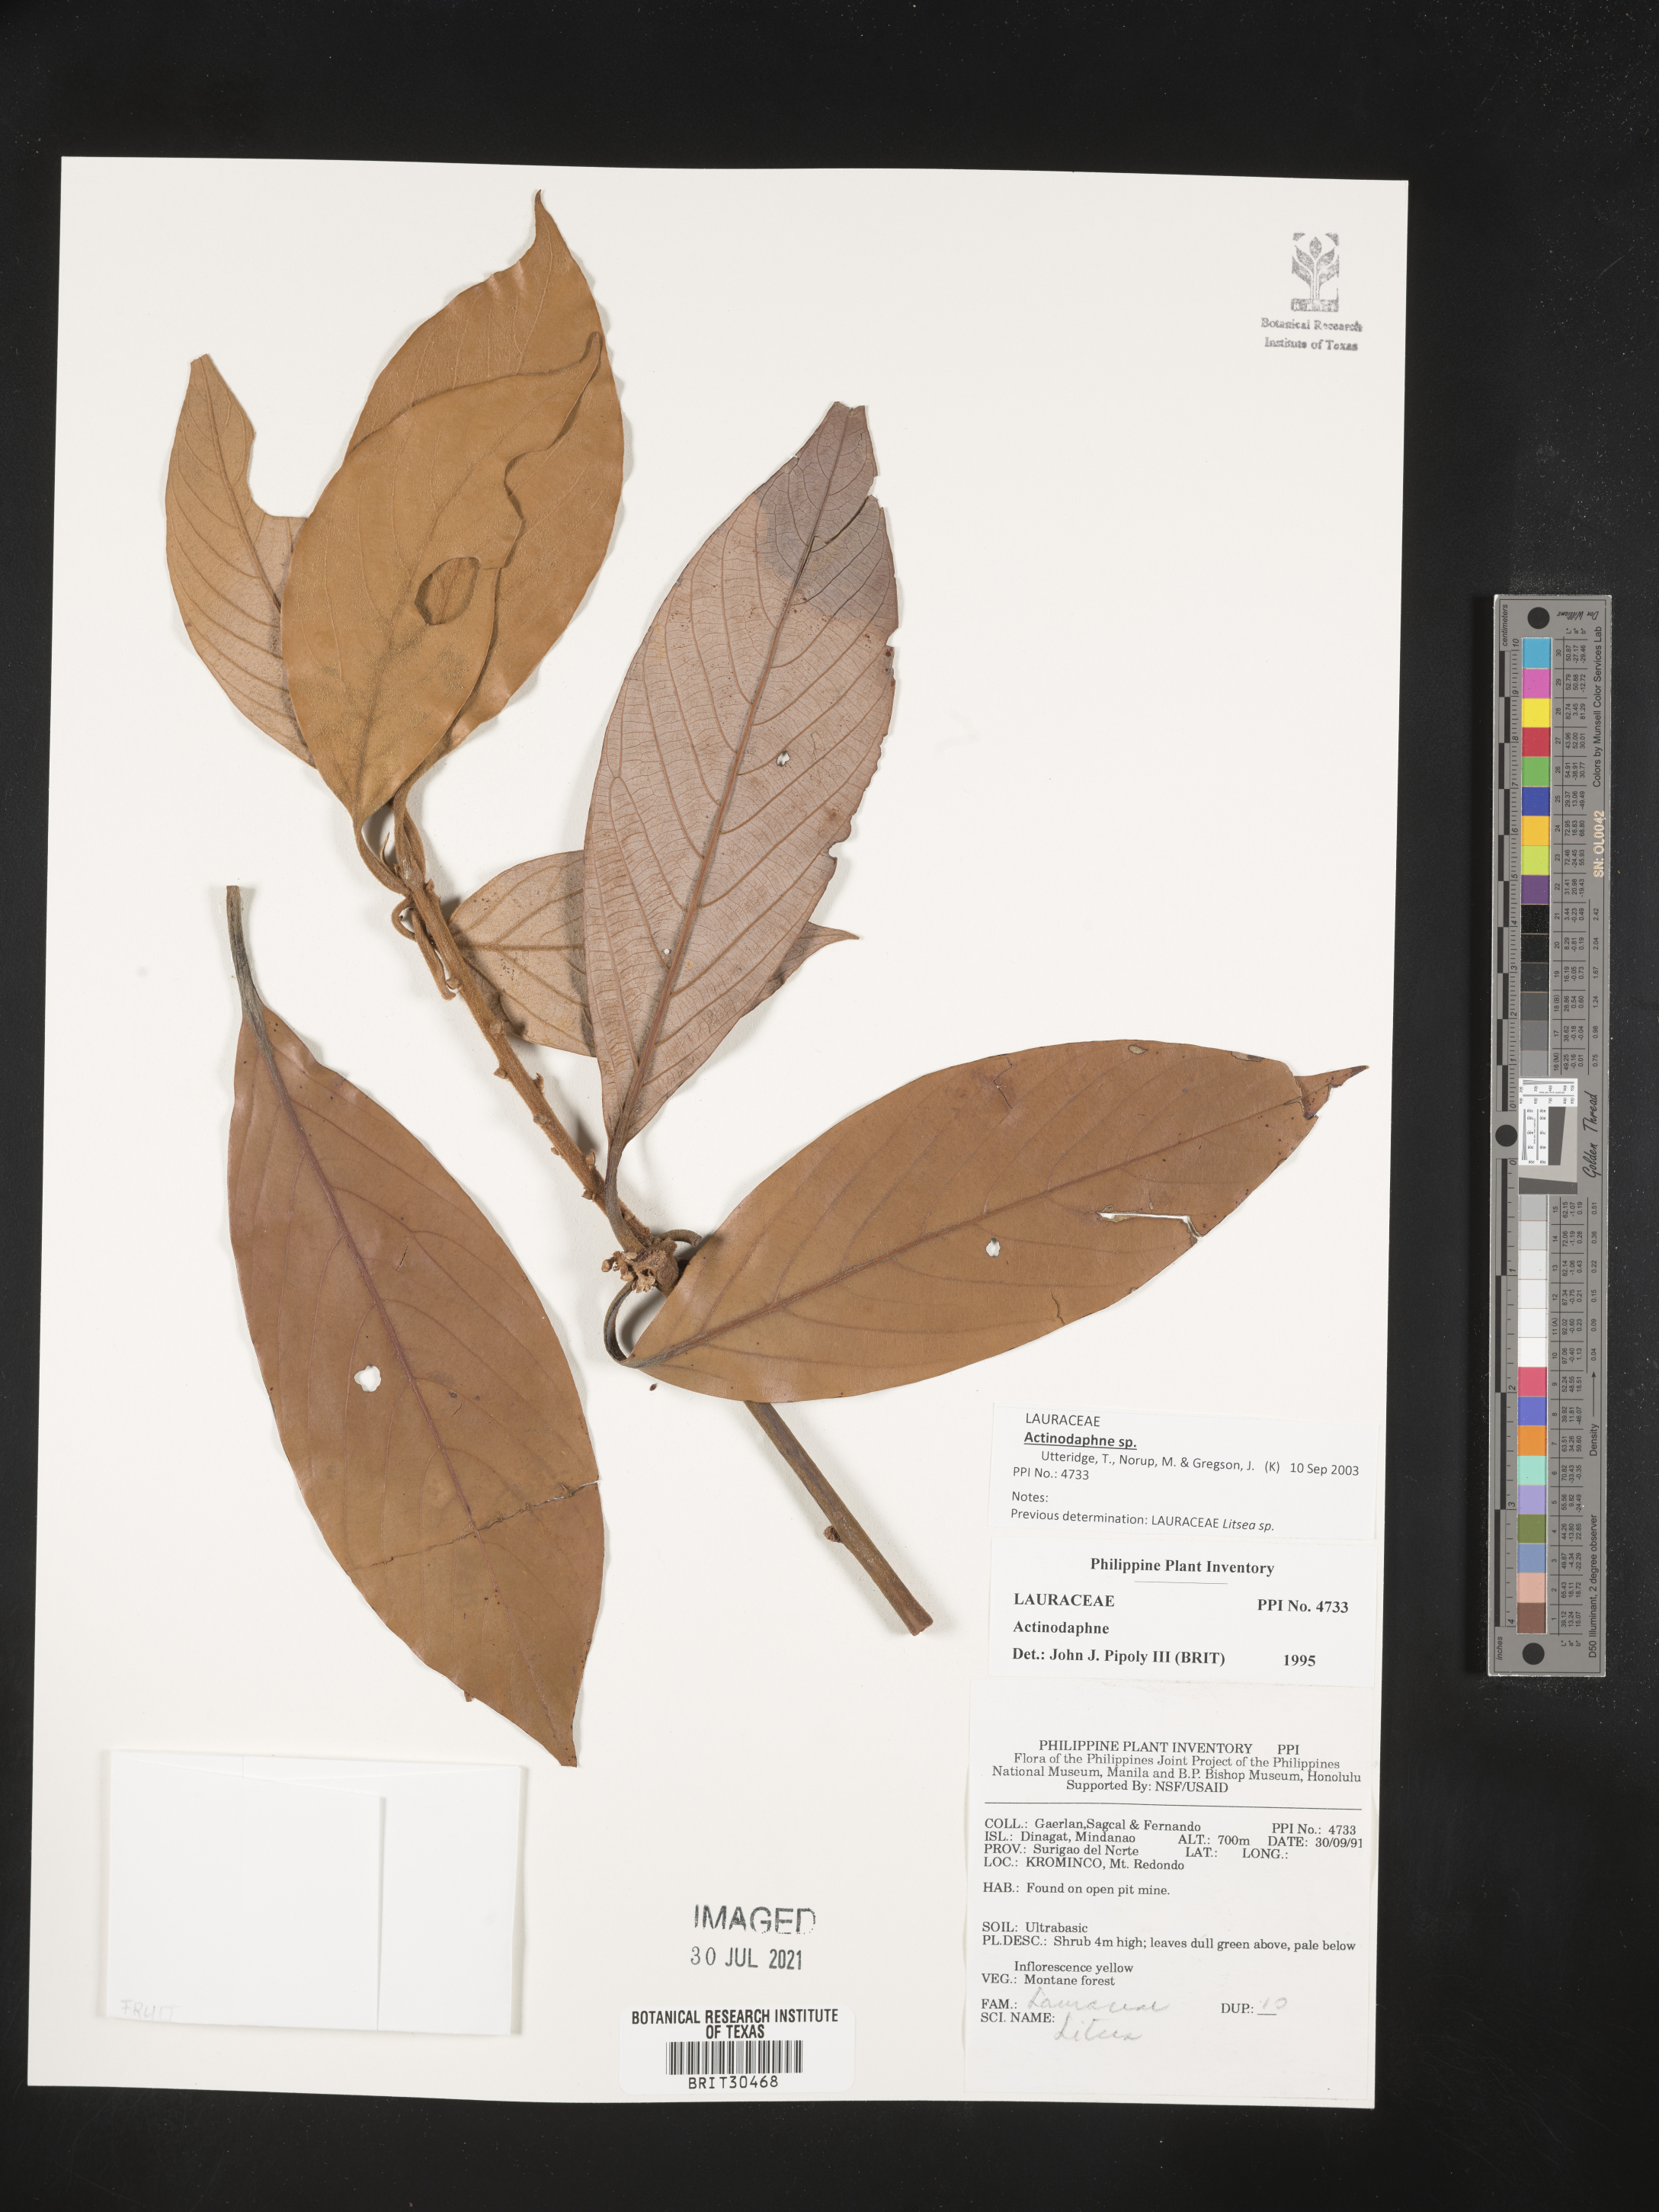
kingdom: Plantae
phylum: Tracheophyta
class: Magnoliopsida
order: Laurales
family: Lauraceae
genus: Actinodaphne
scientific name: Actinodaphne
